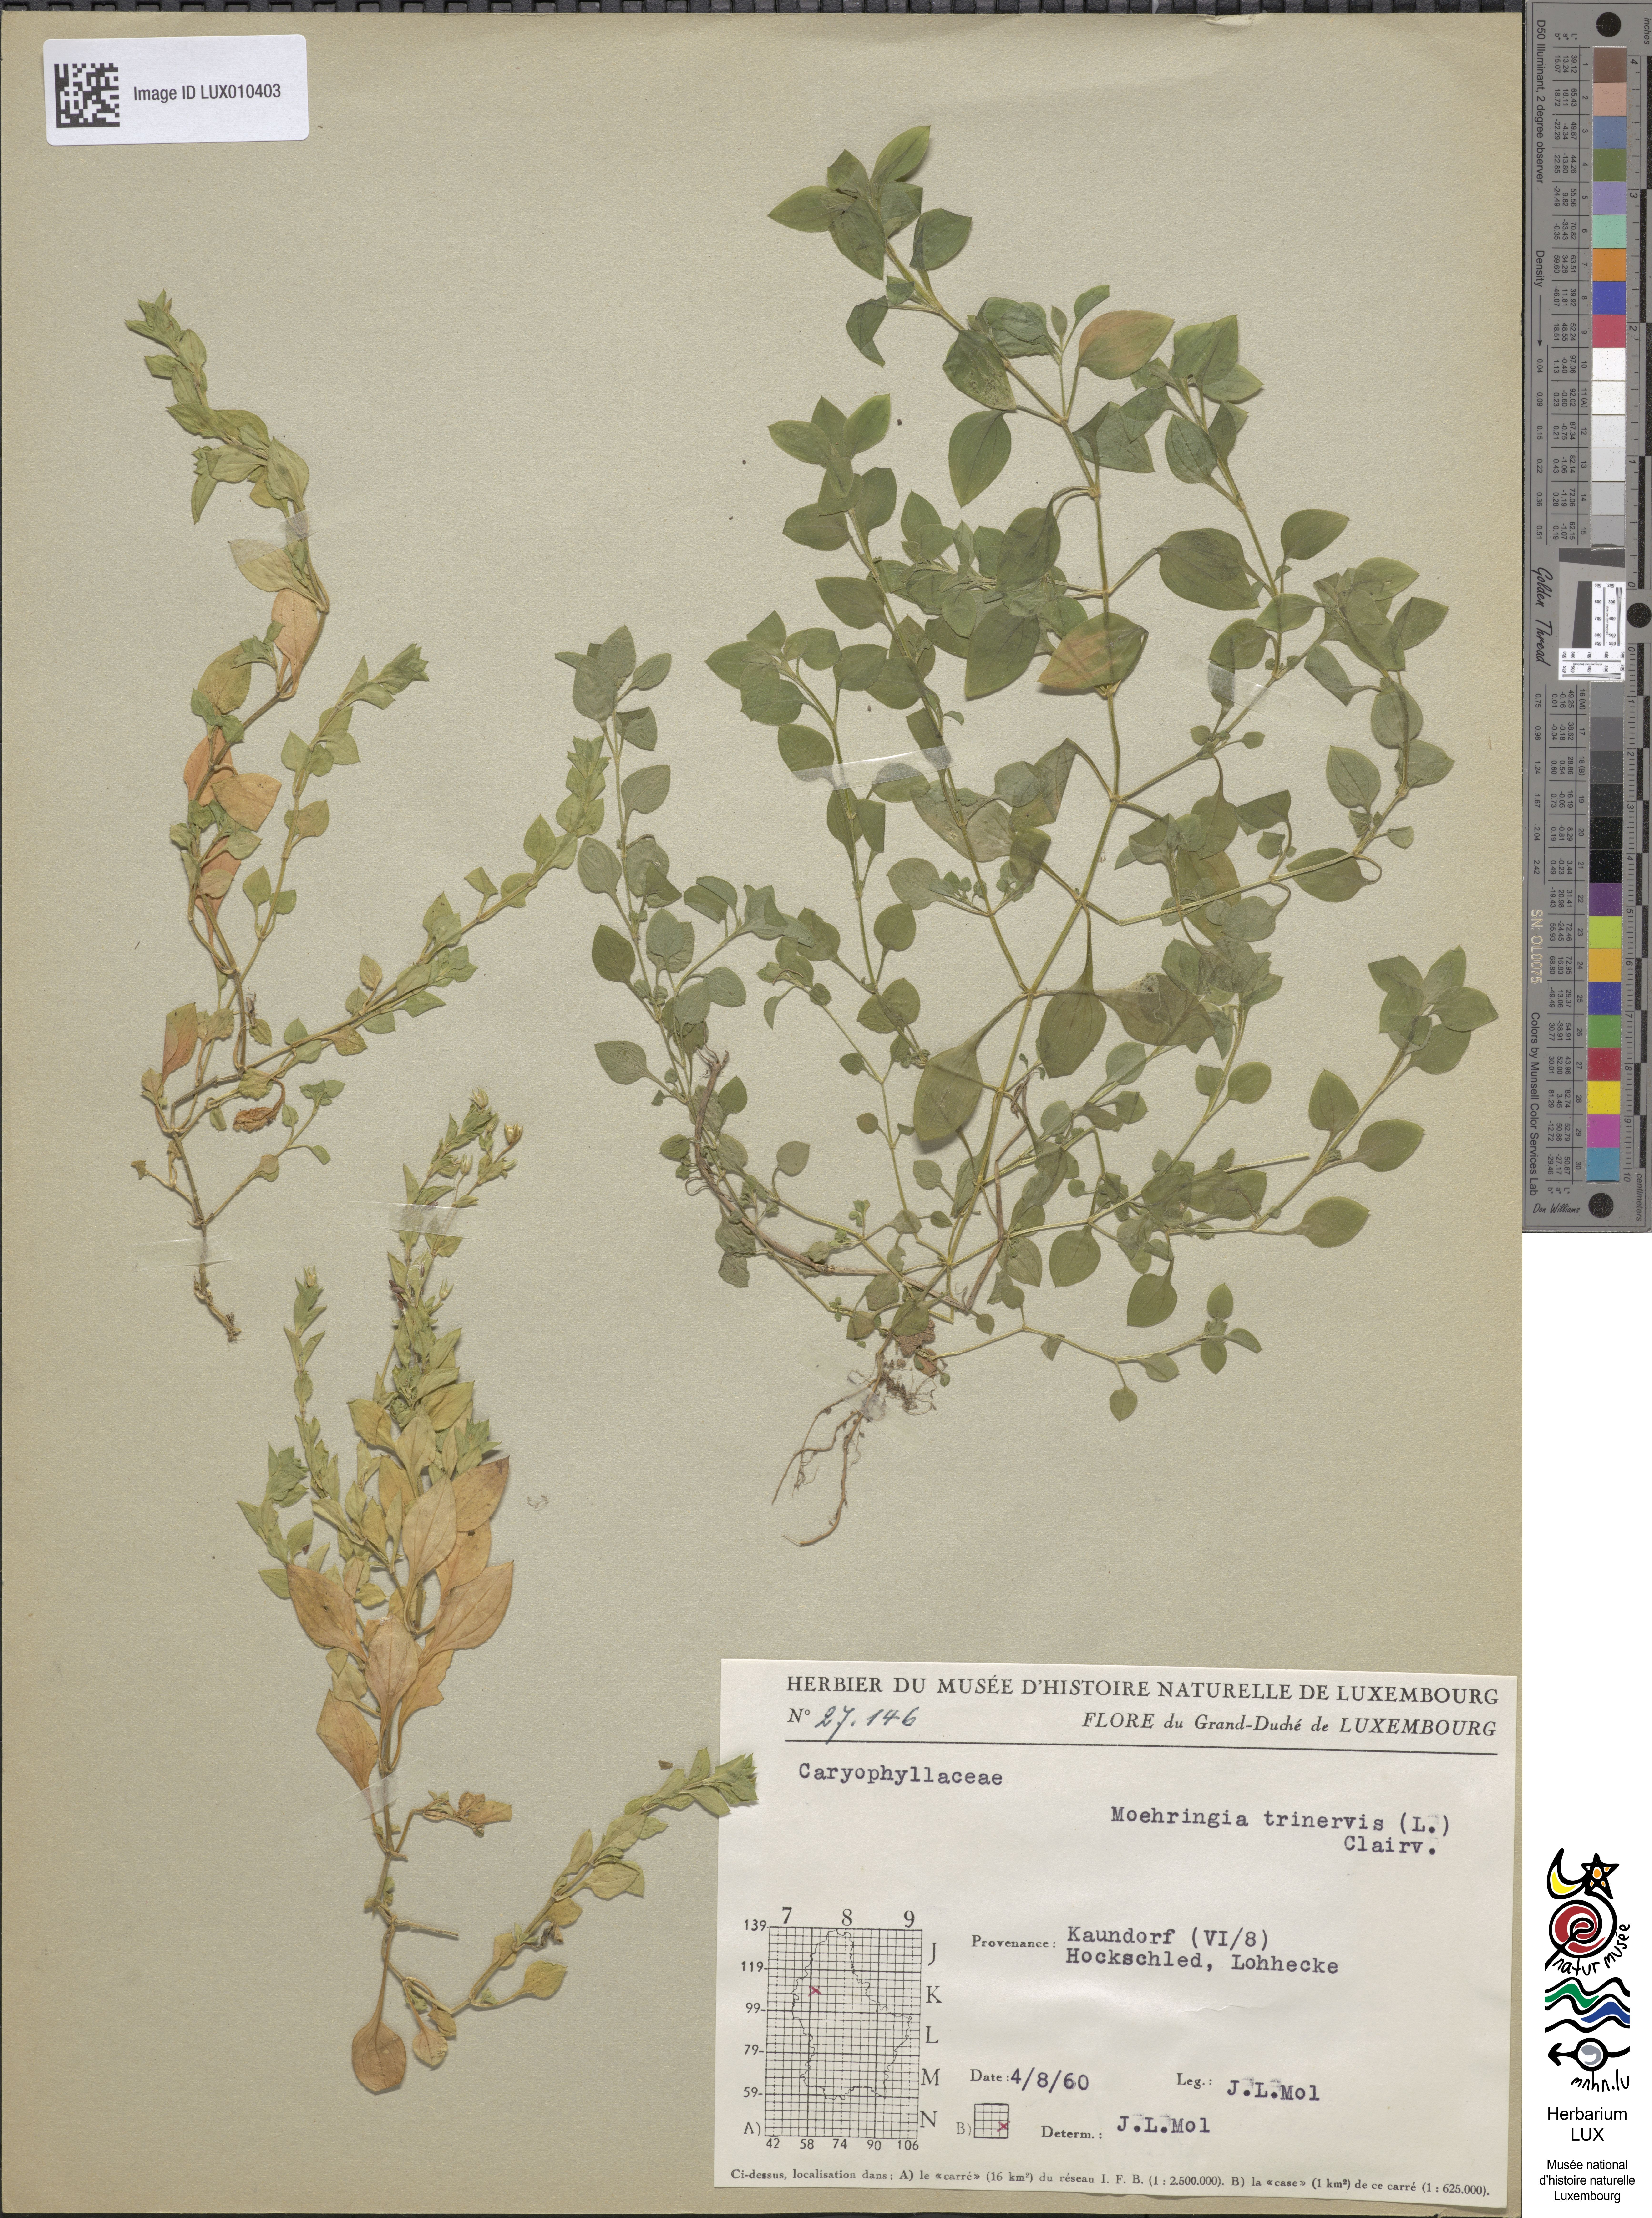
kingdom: Plantae
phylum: Tracheophyta
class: Magnoliopsida
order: Caryophyllales
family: Caryophyllaceae
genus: Moehringia
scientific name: Moehringia trinervia
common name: Three-nerved sandwort
